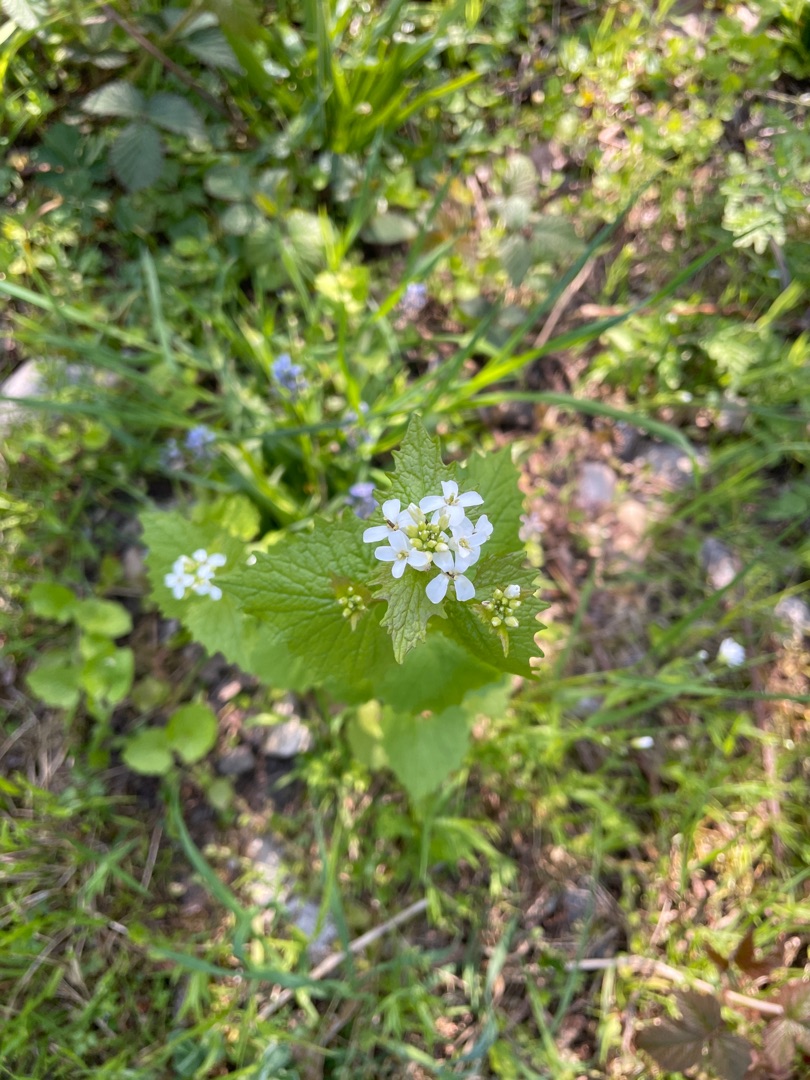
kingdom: Plantae
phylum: Tracheophyta
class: Magnoliopsida
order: Brassicales
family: Brassicaceae
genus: Alliaria
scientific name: Alliaria petiolata
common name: Løgkarse
